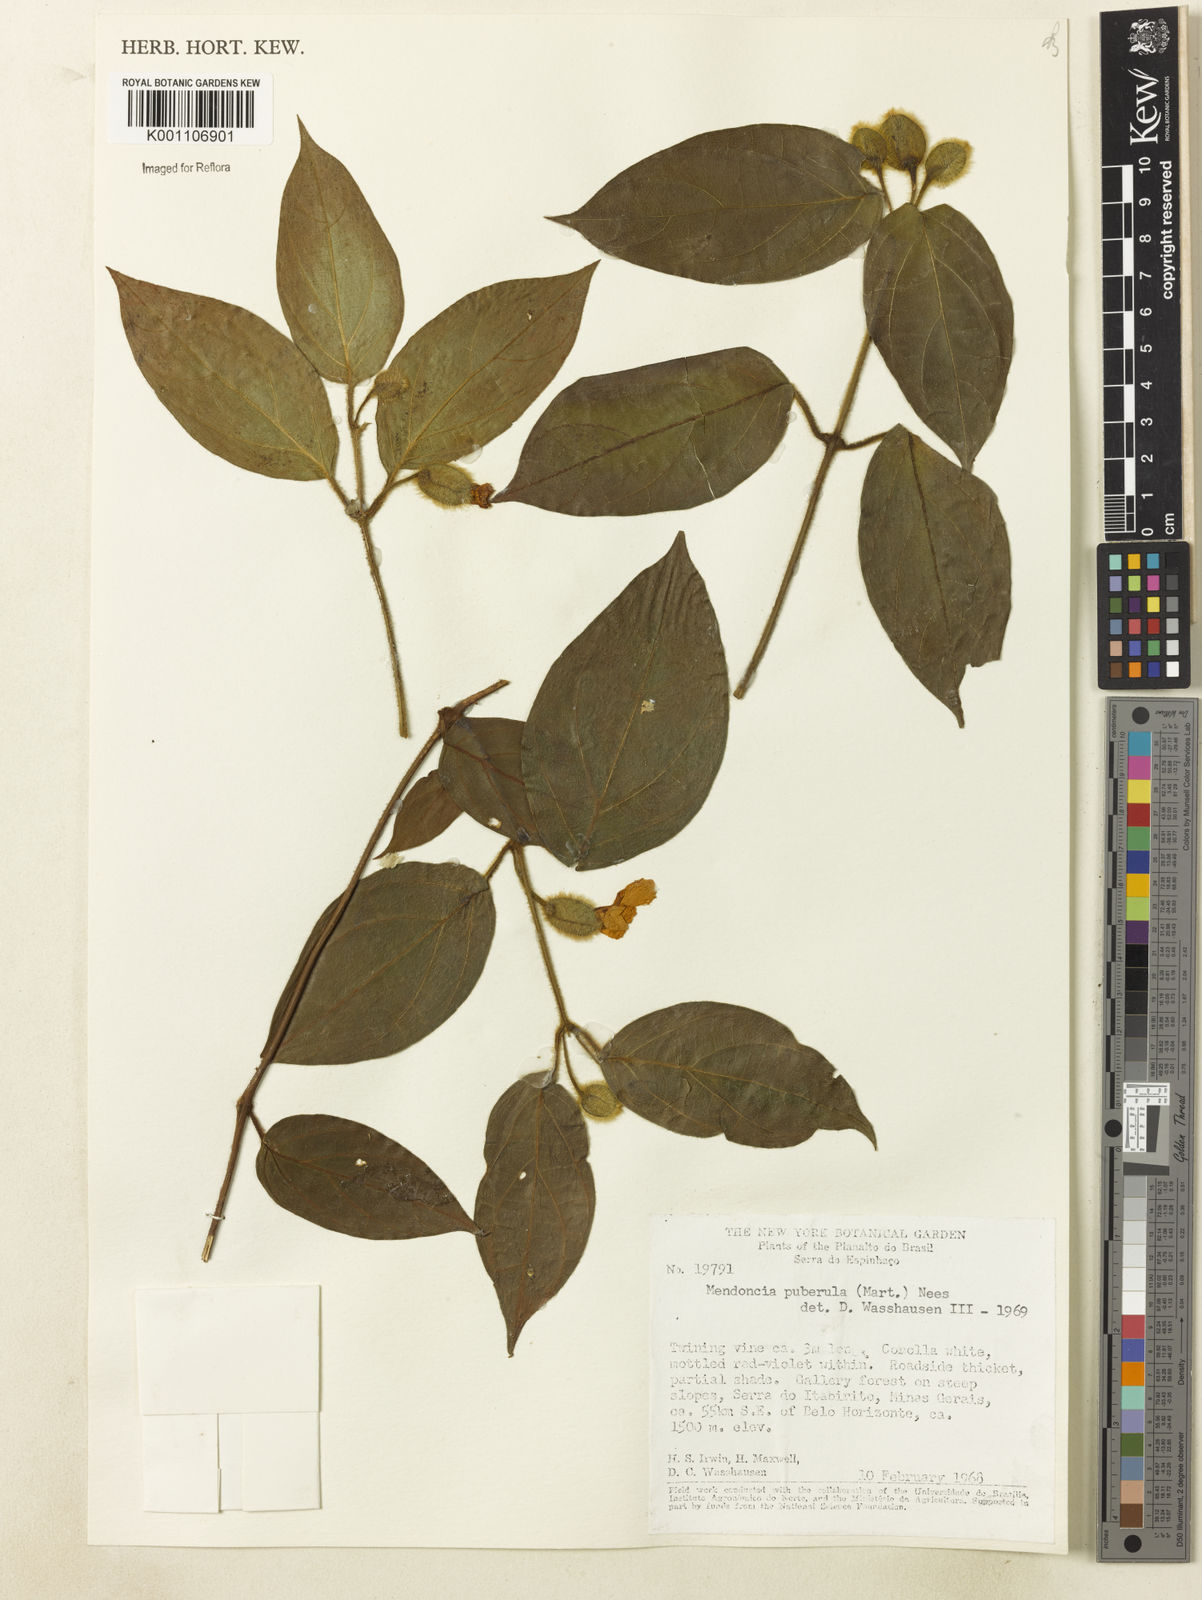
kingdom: Plantae
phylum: Tracheophyta
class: Magnoliopsida
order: Lamiales
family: Acanthaceae
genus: Mendoncia
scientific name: Mendoncia puberula
